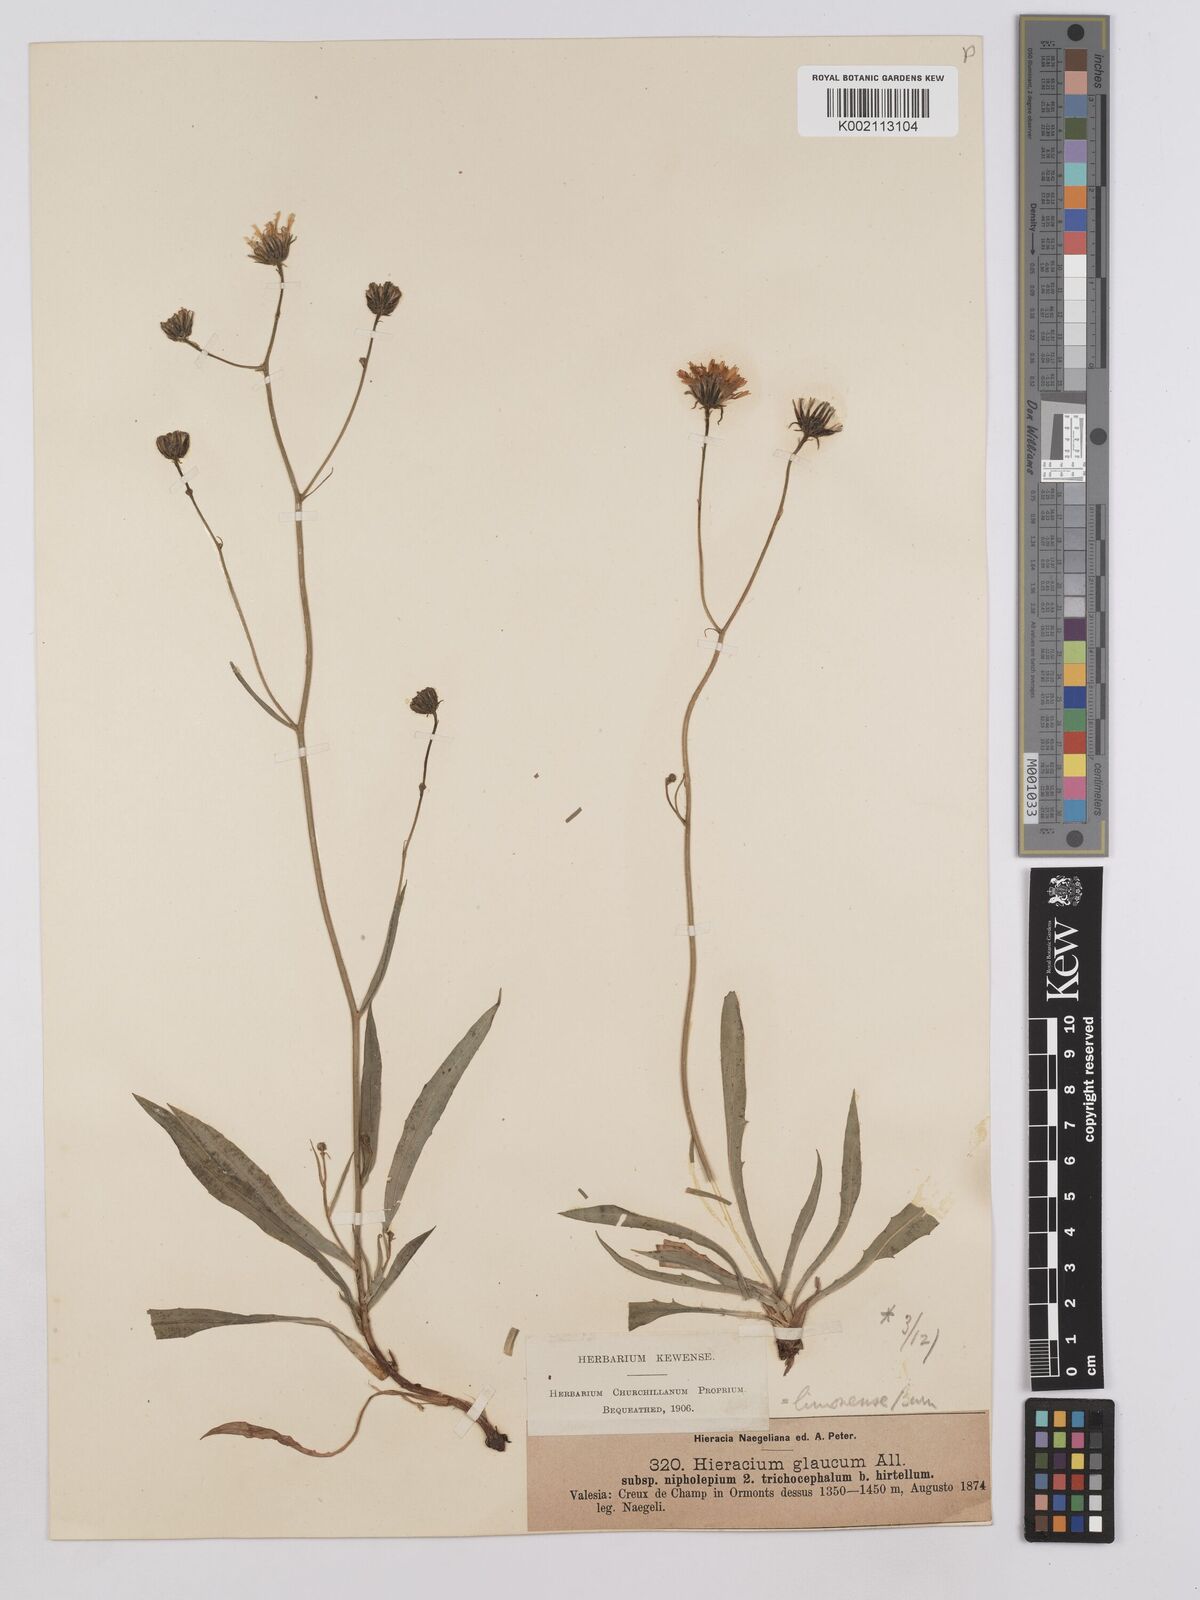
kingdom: Plantae
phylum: Tracheophyta
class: Magnoliopsida
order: Asterales
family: Asteraceae
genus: Hieracium
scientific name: Hieracium glaucum
